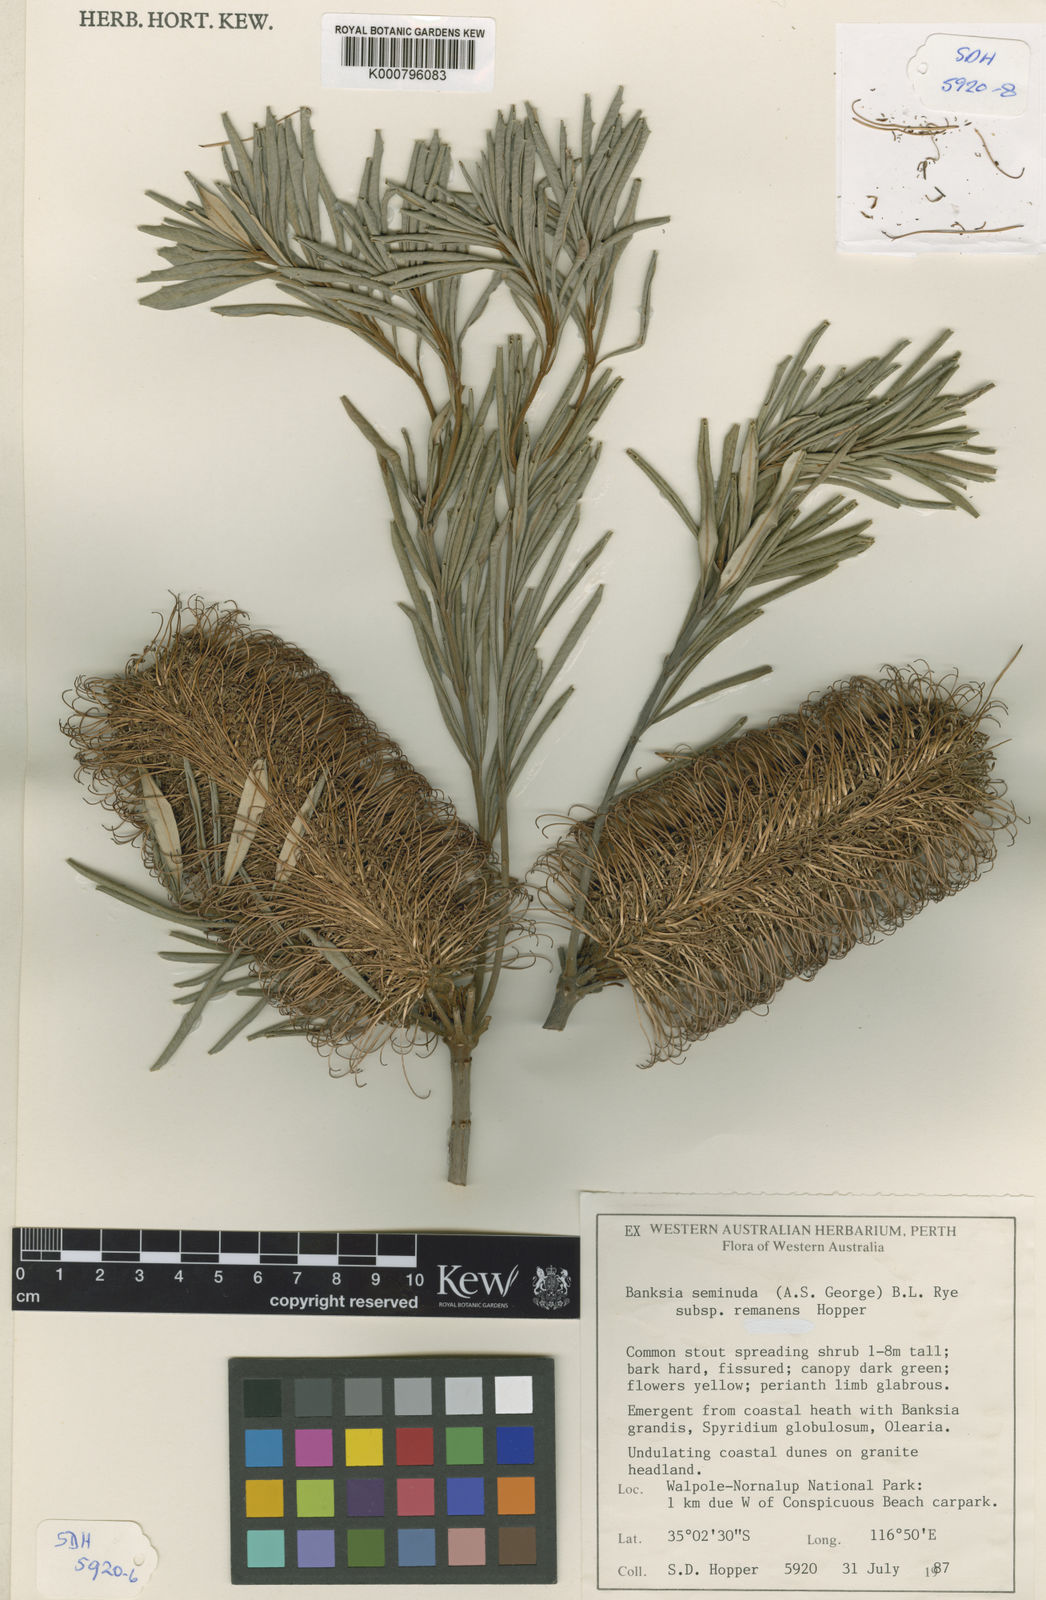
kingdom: Plantae
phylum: Tracheophyta
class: Magnoliopsida
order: Proteales
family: Proteaceae
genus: Banksia
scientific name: Banksia seminuda
